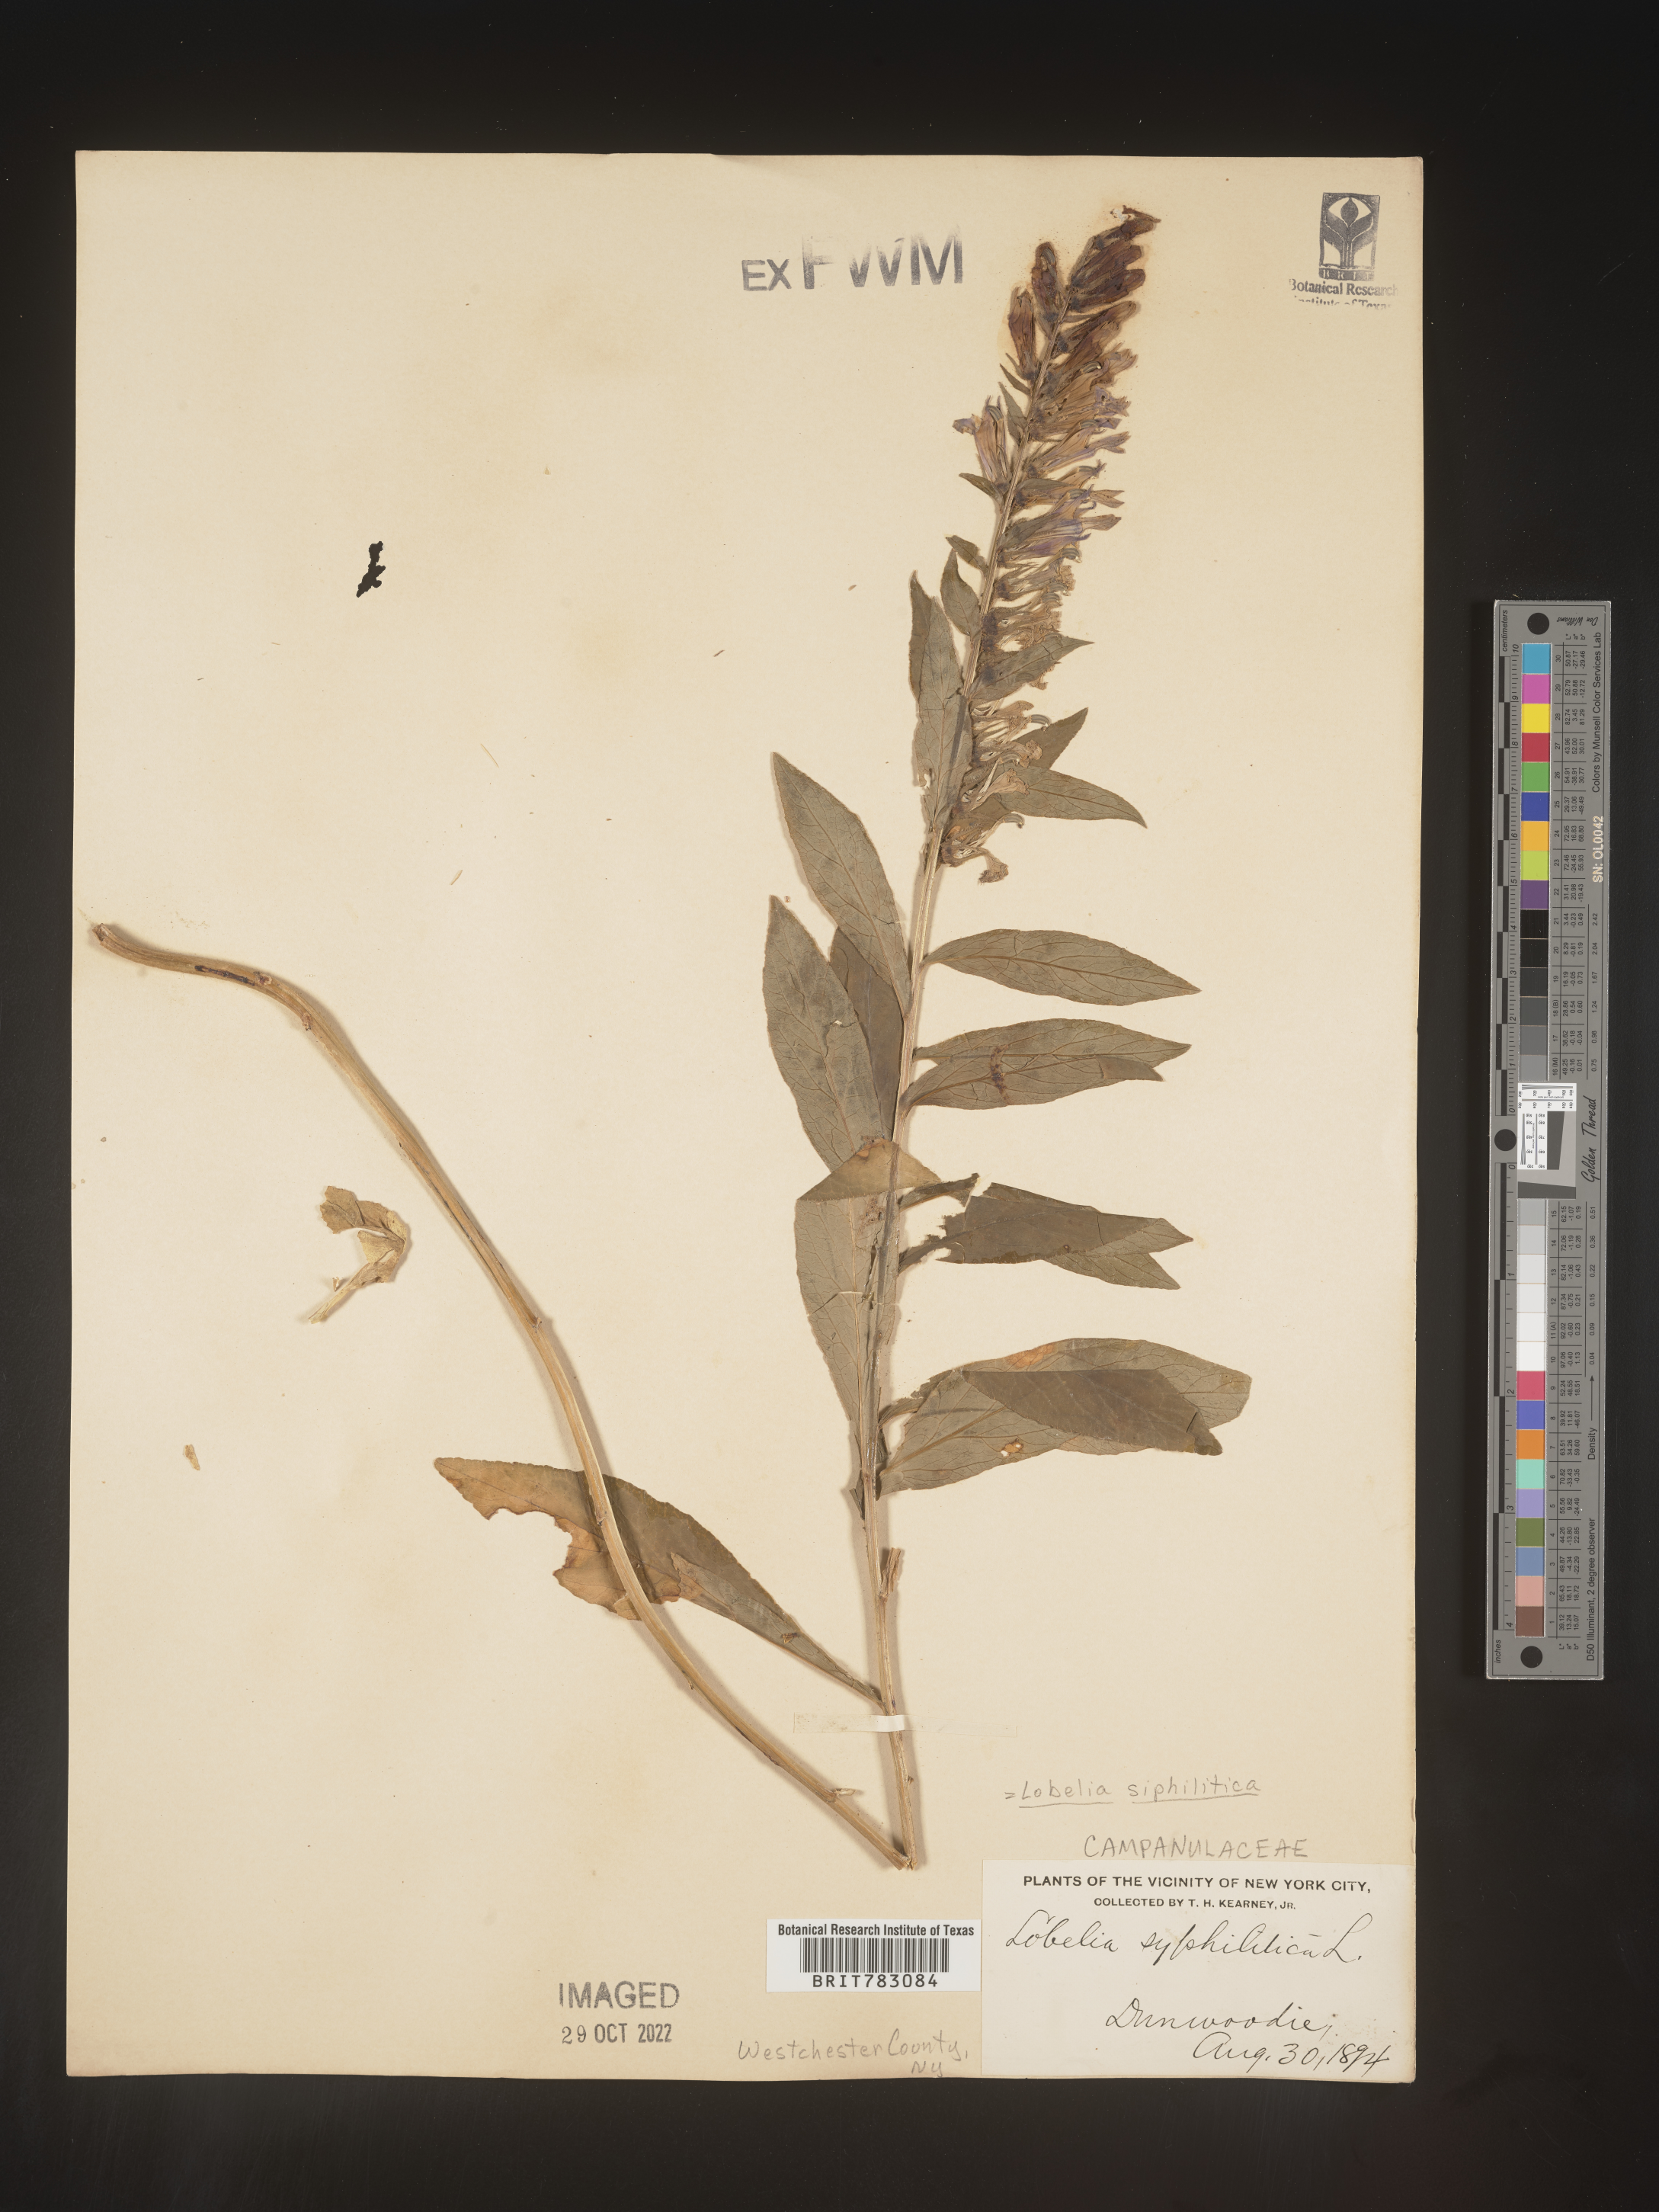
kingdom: Plantae
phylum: Tracheophyta
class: Magnoliopsida
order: Asterales
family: Campanulaceae
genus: Lobelia
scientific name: Lobelia siphilitica
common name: Great lobelia
